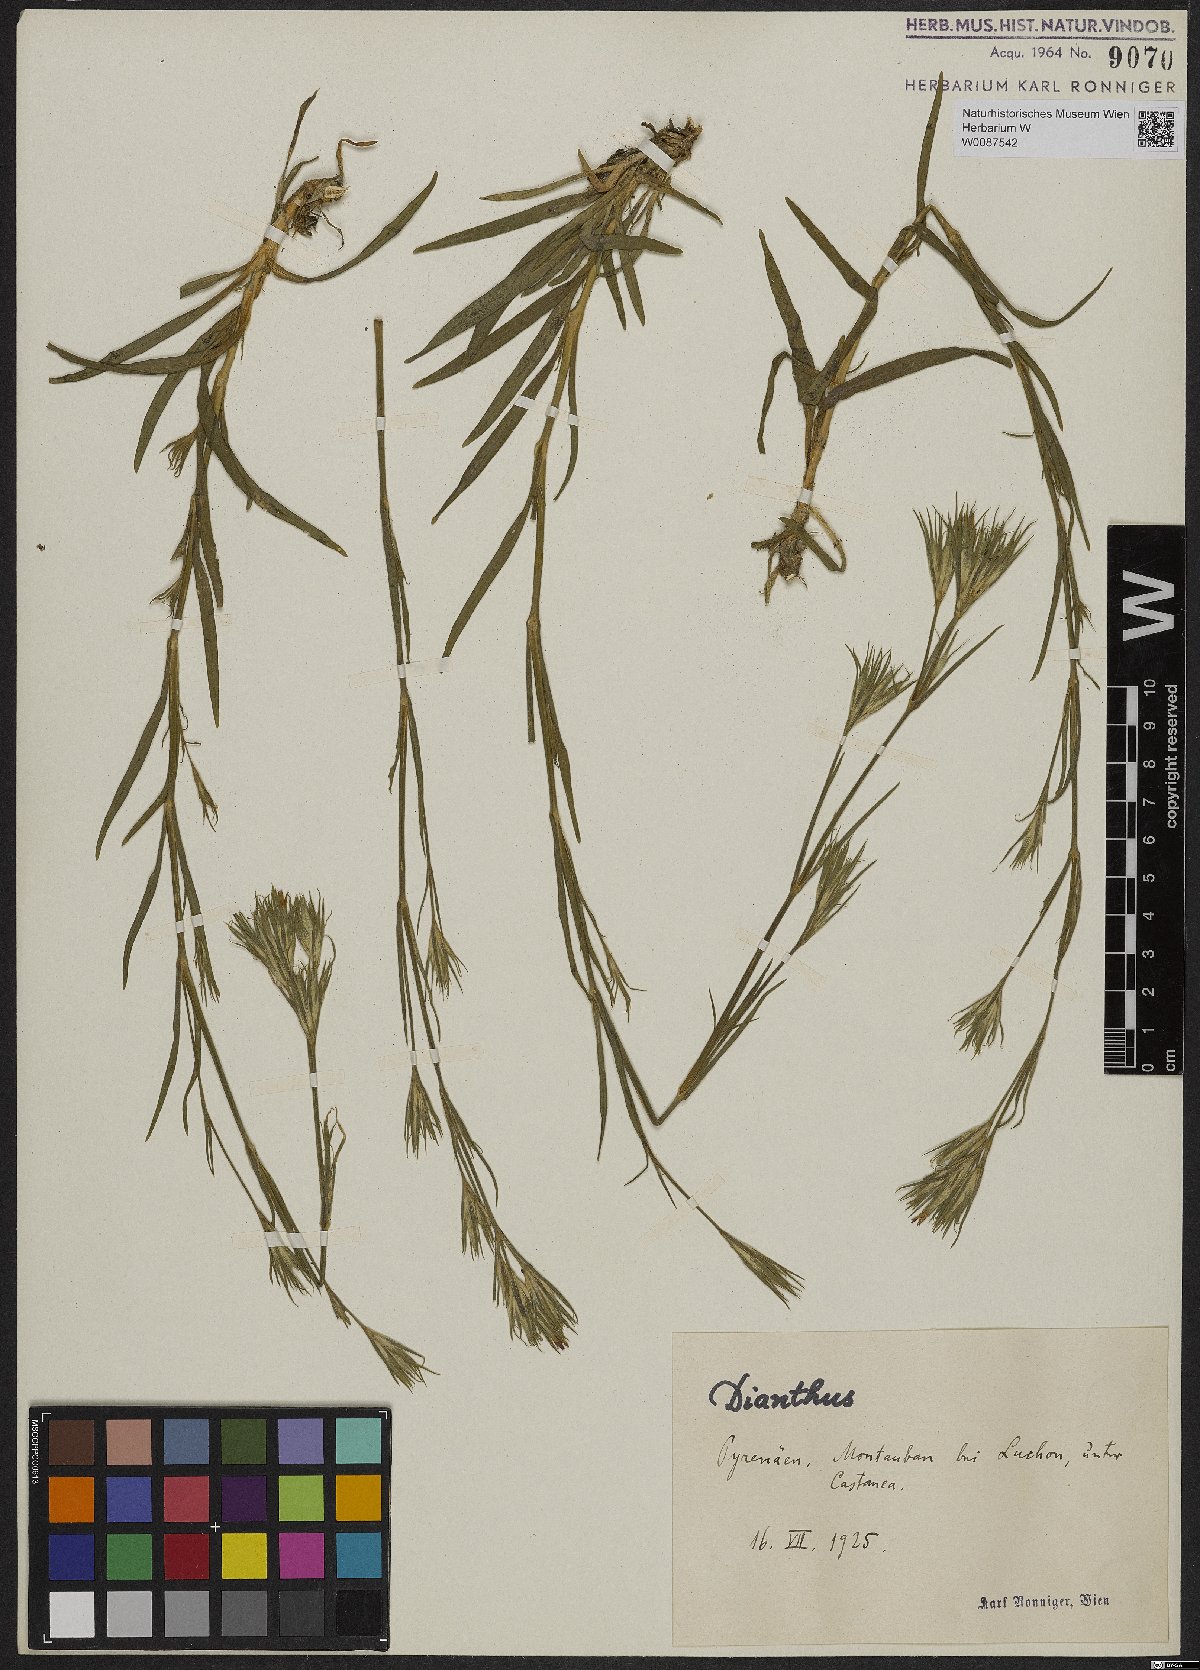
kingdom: Plantae
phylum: Tracheophyta
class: Magnoliopsida
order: Caryophyllales
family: Caryophyllaceae
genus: Dianthus
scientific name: Dianthus armeria
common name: Deptford pink
